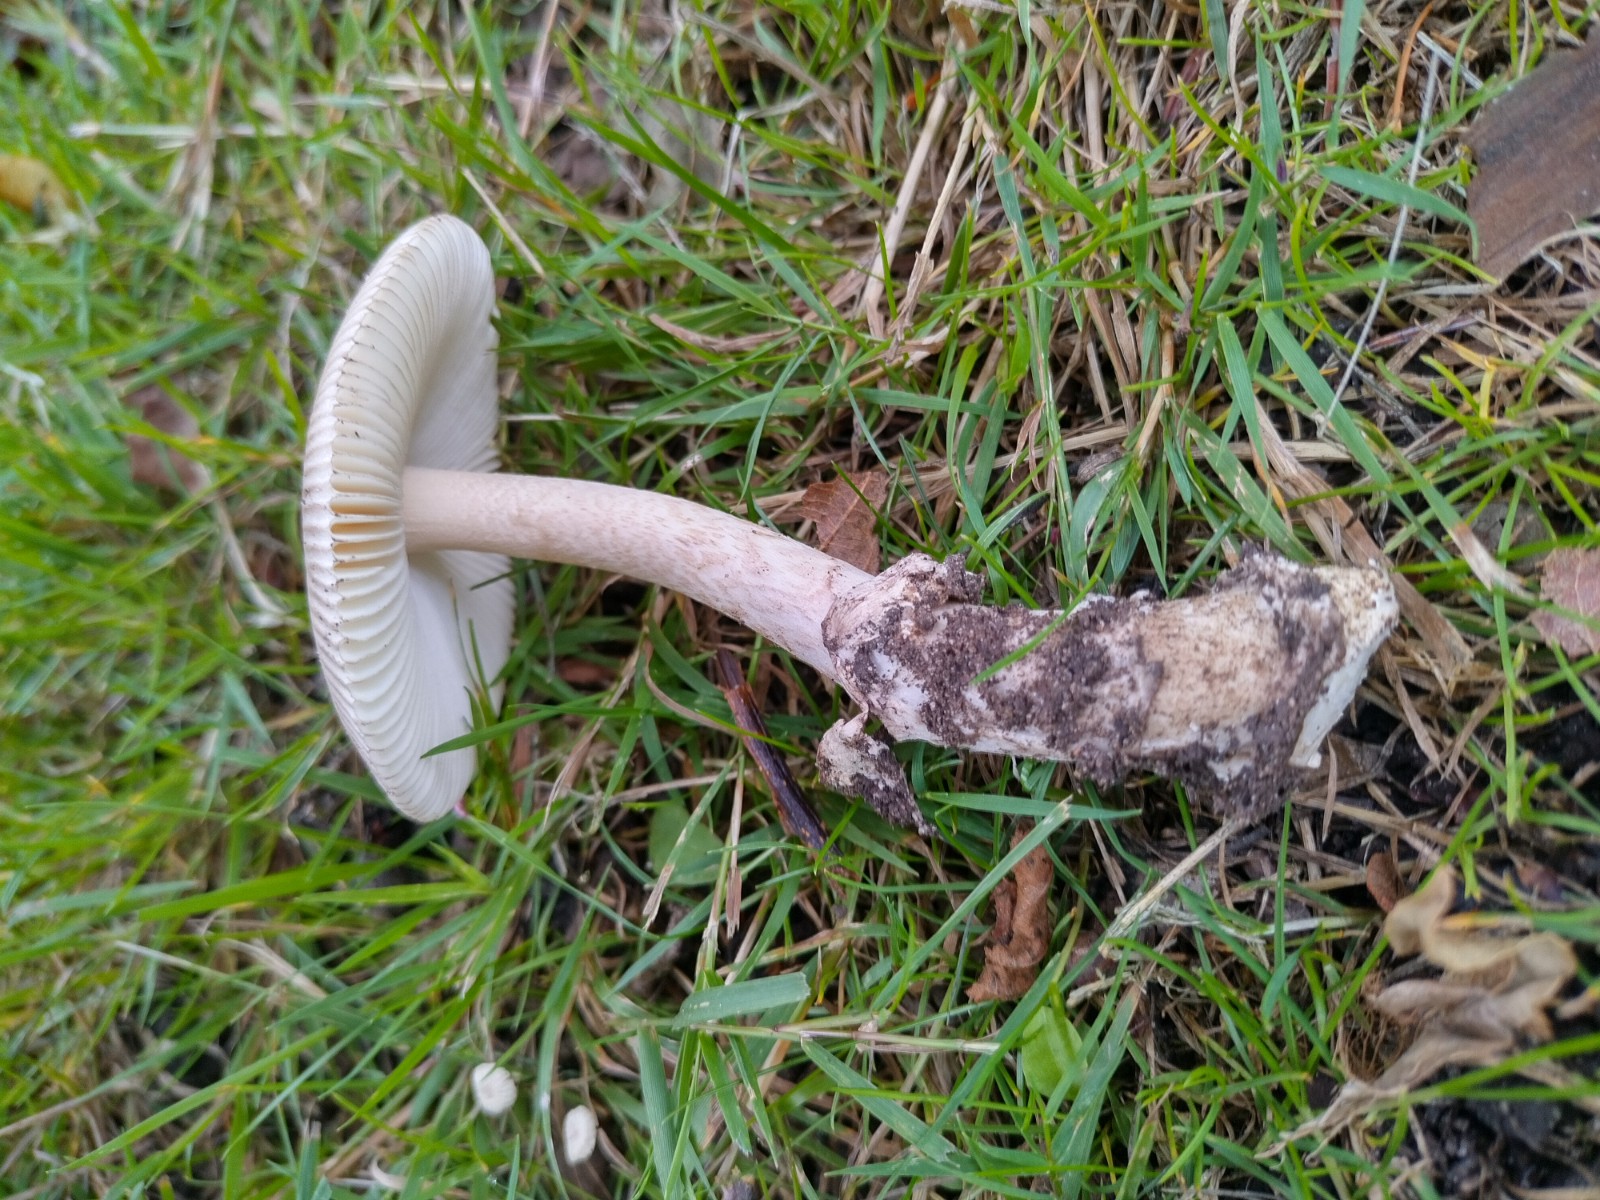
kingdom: Fungi
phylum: Basidiomycota
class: Agaricomycetes
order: Agaricales
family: Amanitaceae
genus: Amanita
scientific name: Amanita fulva
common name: brun kam-fluesvamp
